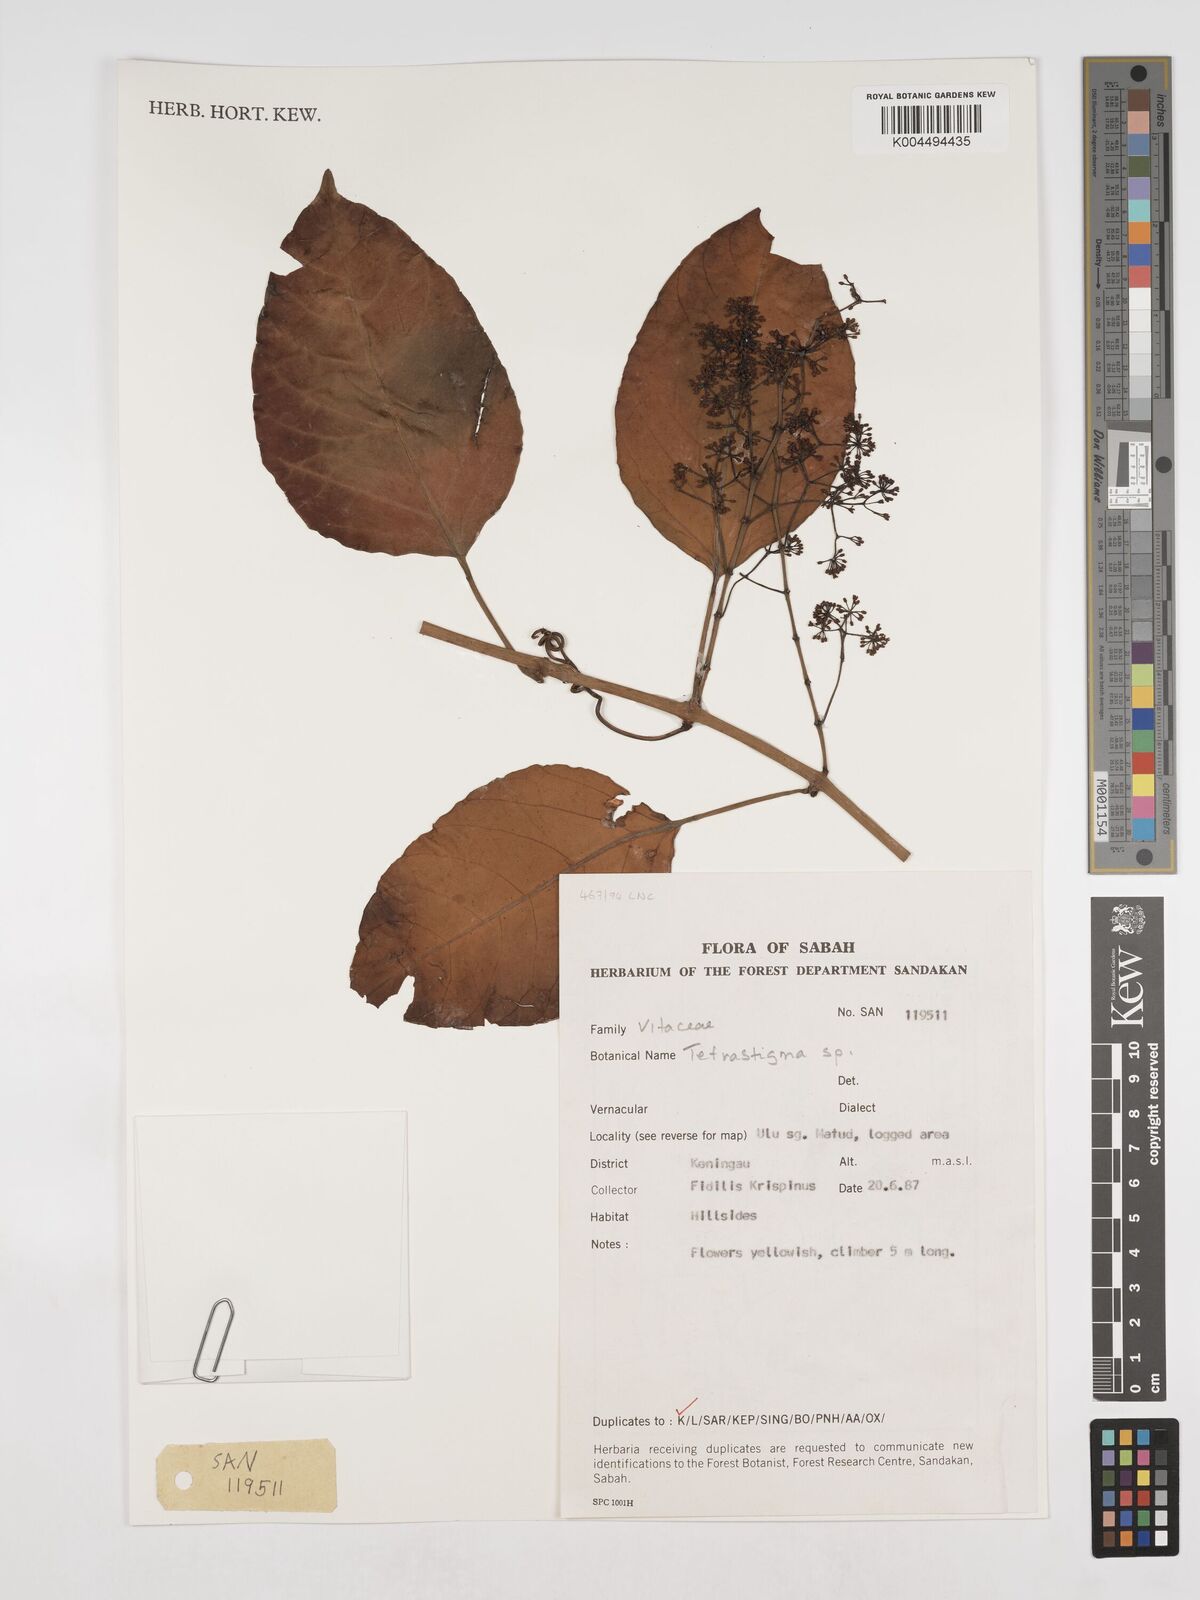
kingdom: Plantae
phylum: Tracheophyta
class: Magnoliopsida
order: Vitales
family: Vitaceae
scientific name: Vitaceae
